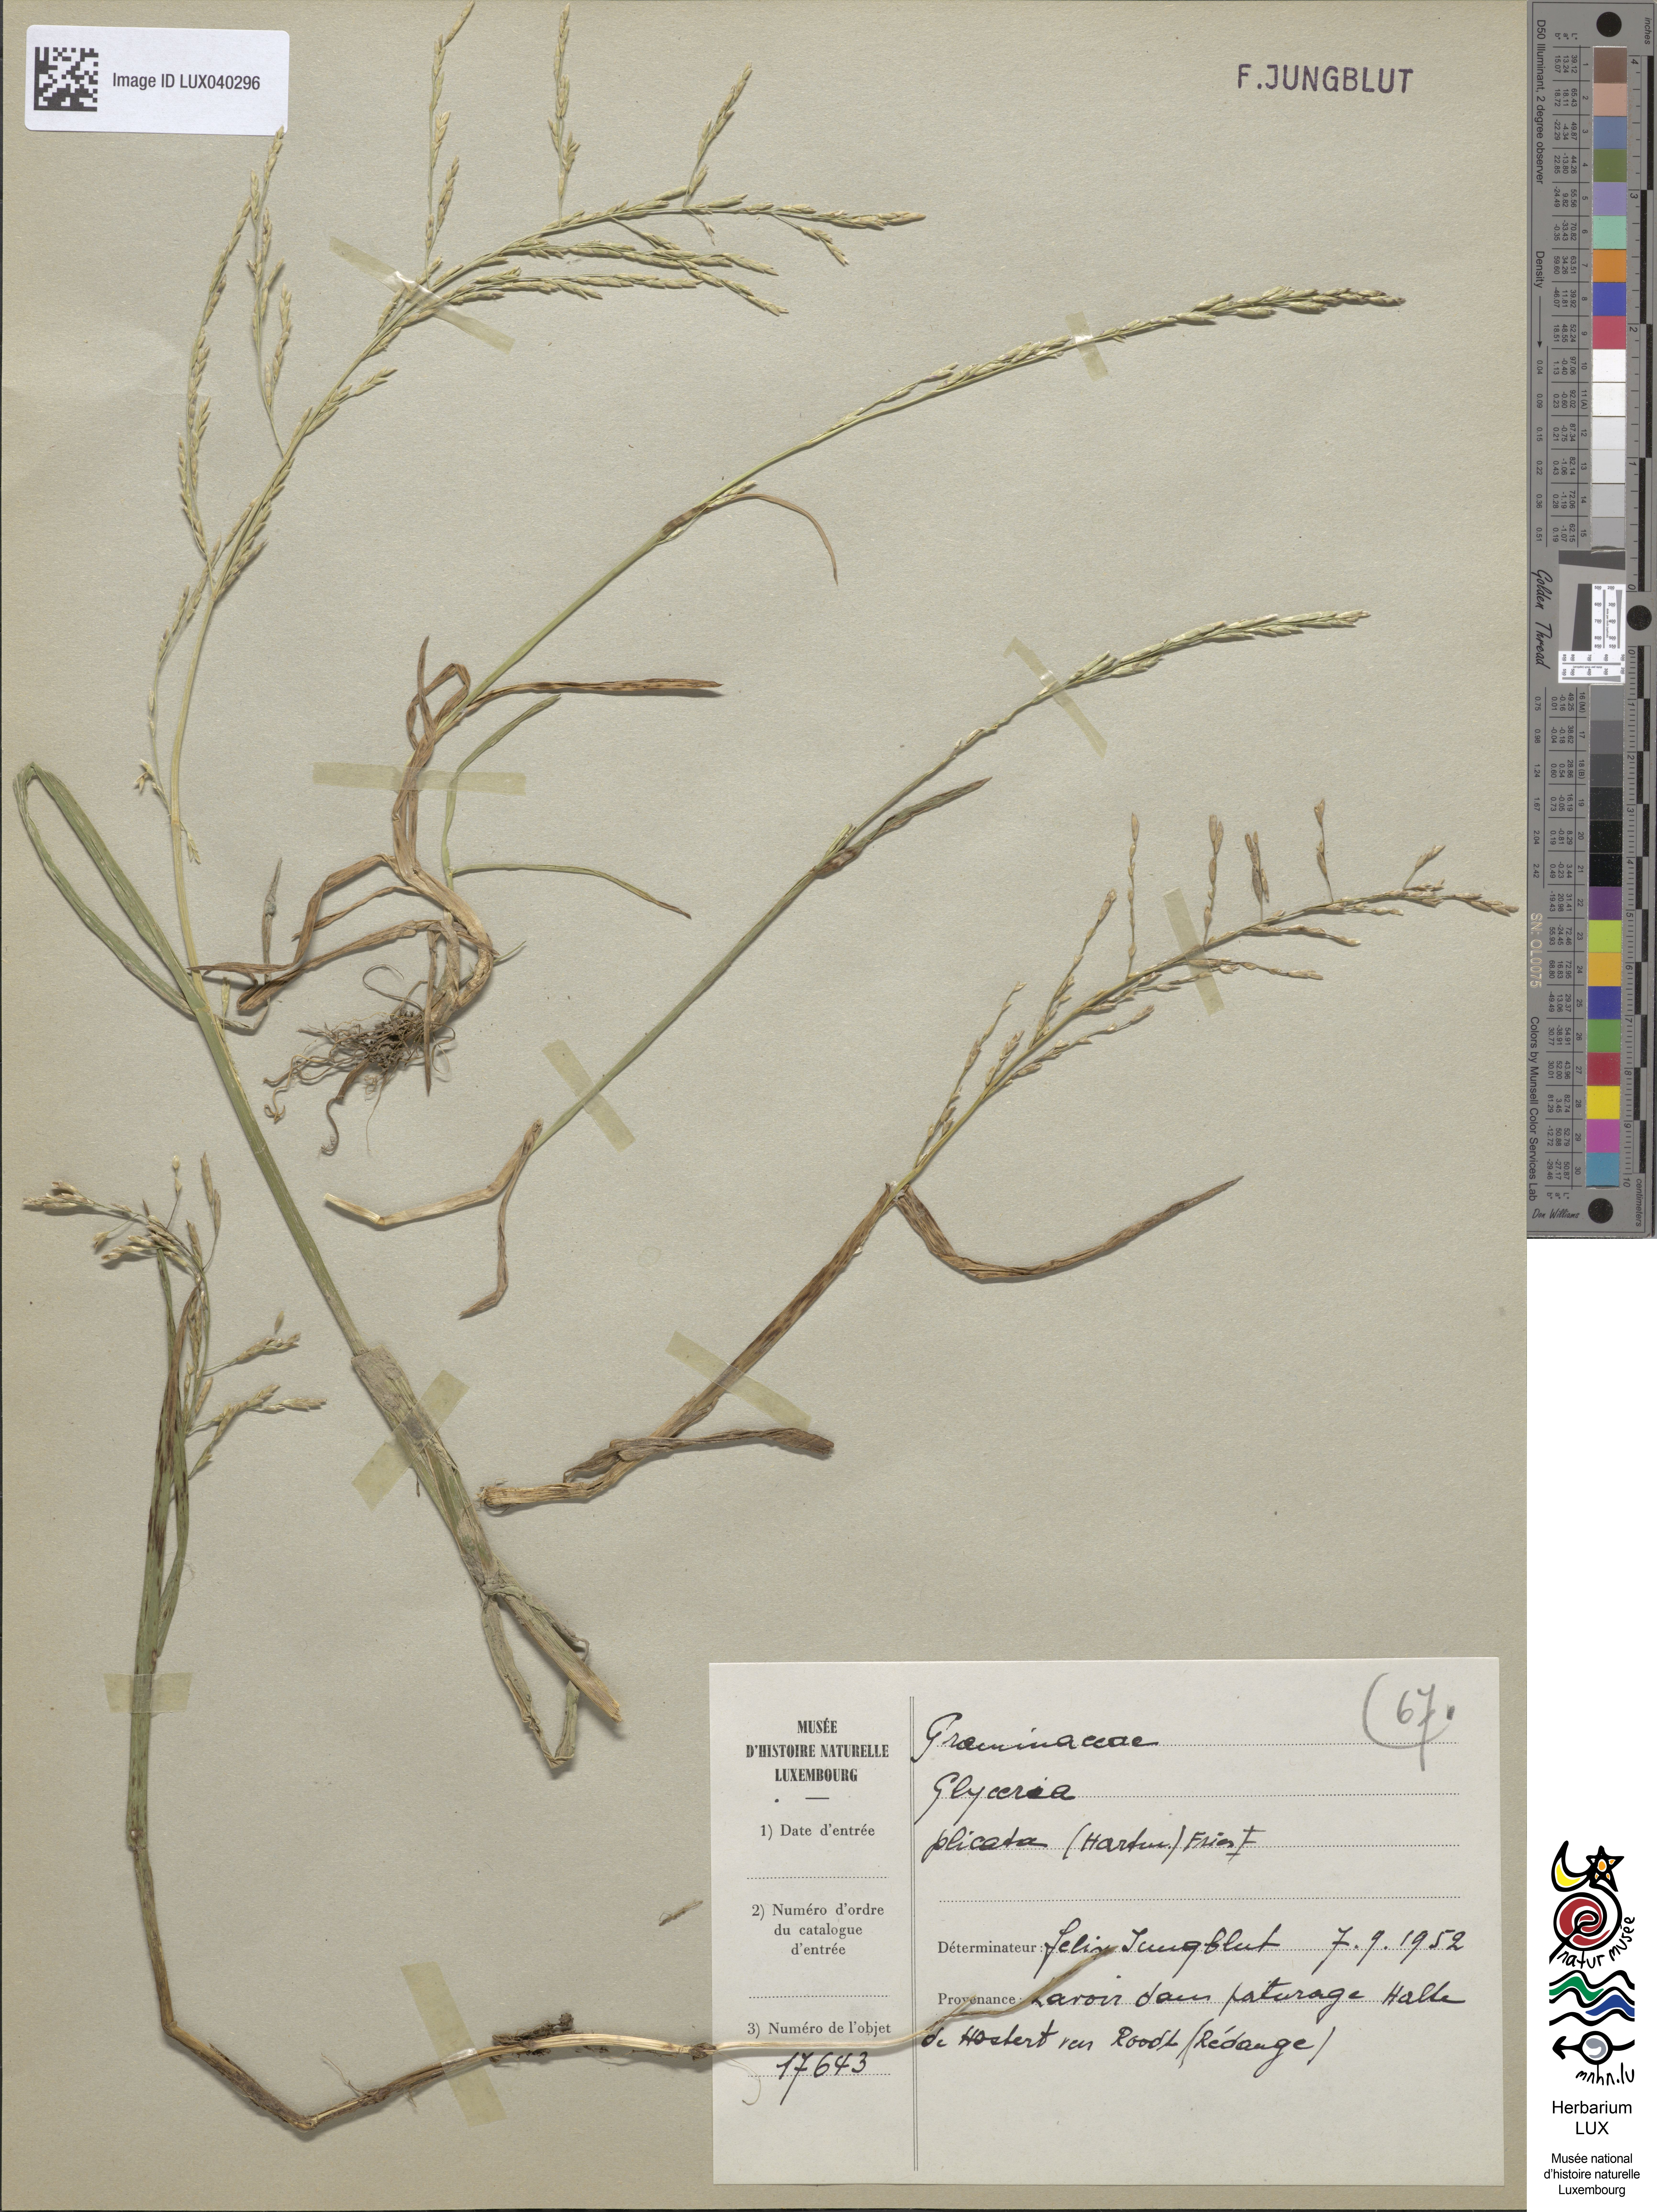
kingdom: Plantae
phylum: Tracheophyta
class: Liliopsida
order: Poales
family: Poaceae
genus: Glyceria
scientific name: Glyceria notata
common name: Plicate sweet-grass
